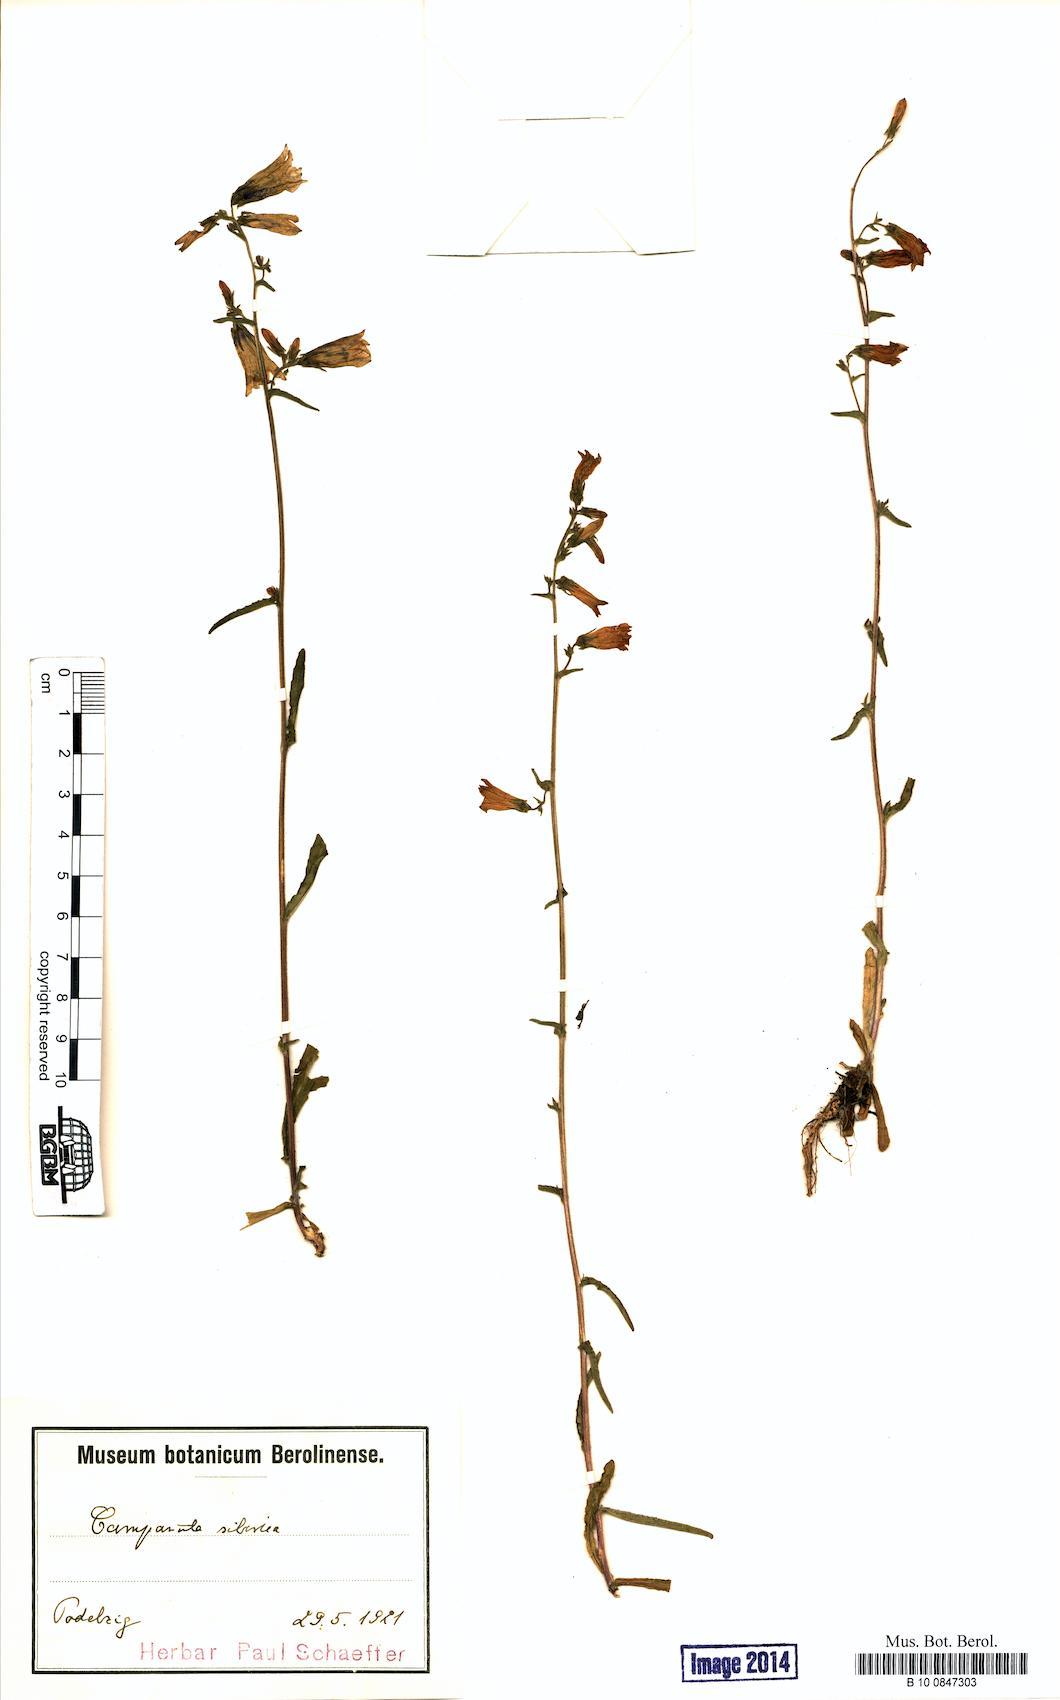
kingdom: Plantae
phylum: Tracheophyta
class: Magnoliopsida
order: Asterales
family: Campanulaceae
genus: Campanula
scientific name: Campanula sibirica
